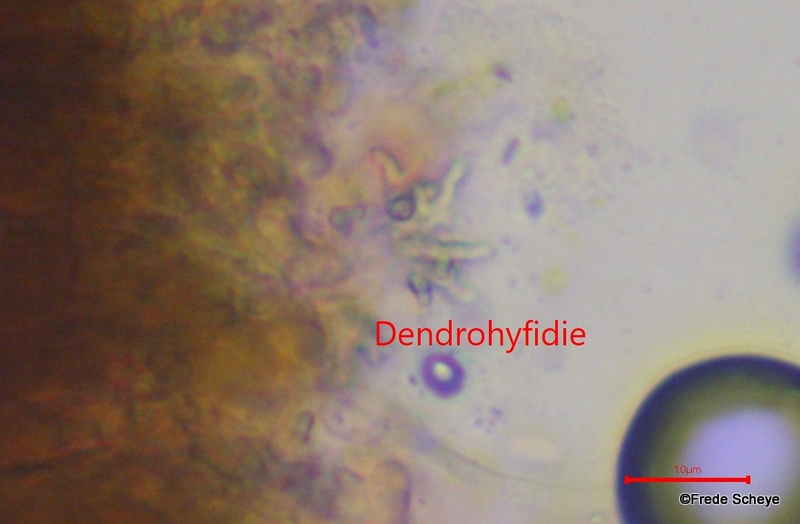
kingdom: Fungi
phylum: Basidiomycota
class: Agaricomycetes
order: Russulales
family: Peniophoraceae
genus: Peniophora
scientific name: Peniophora lycii
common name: grynet voksskind
